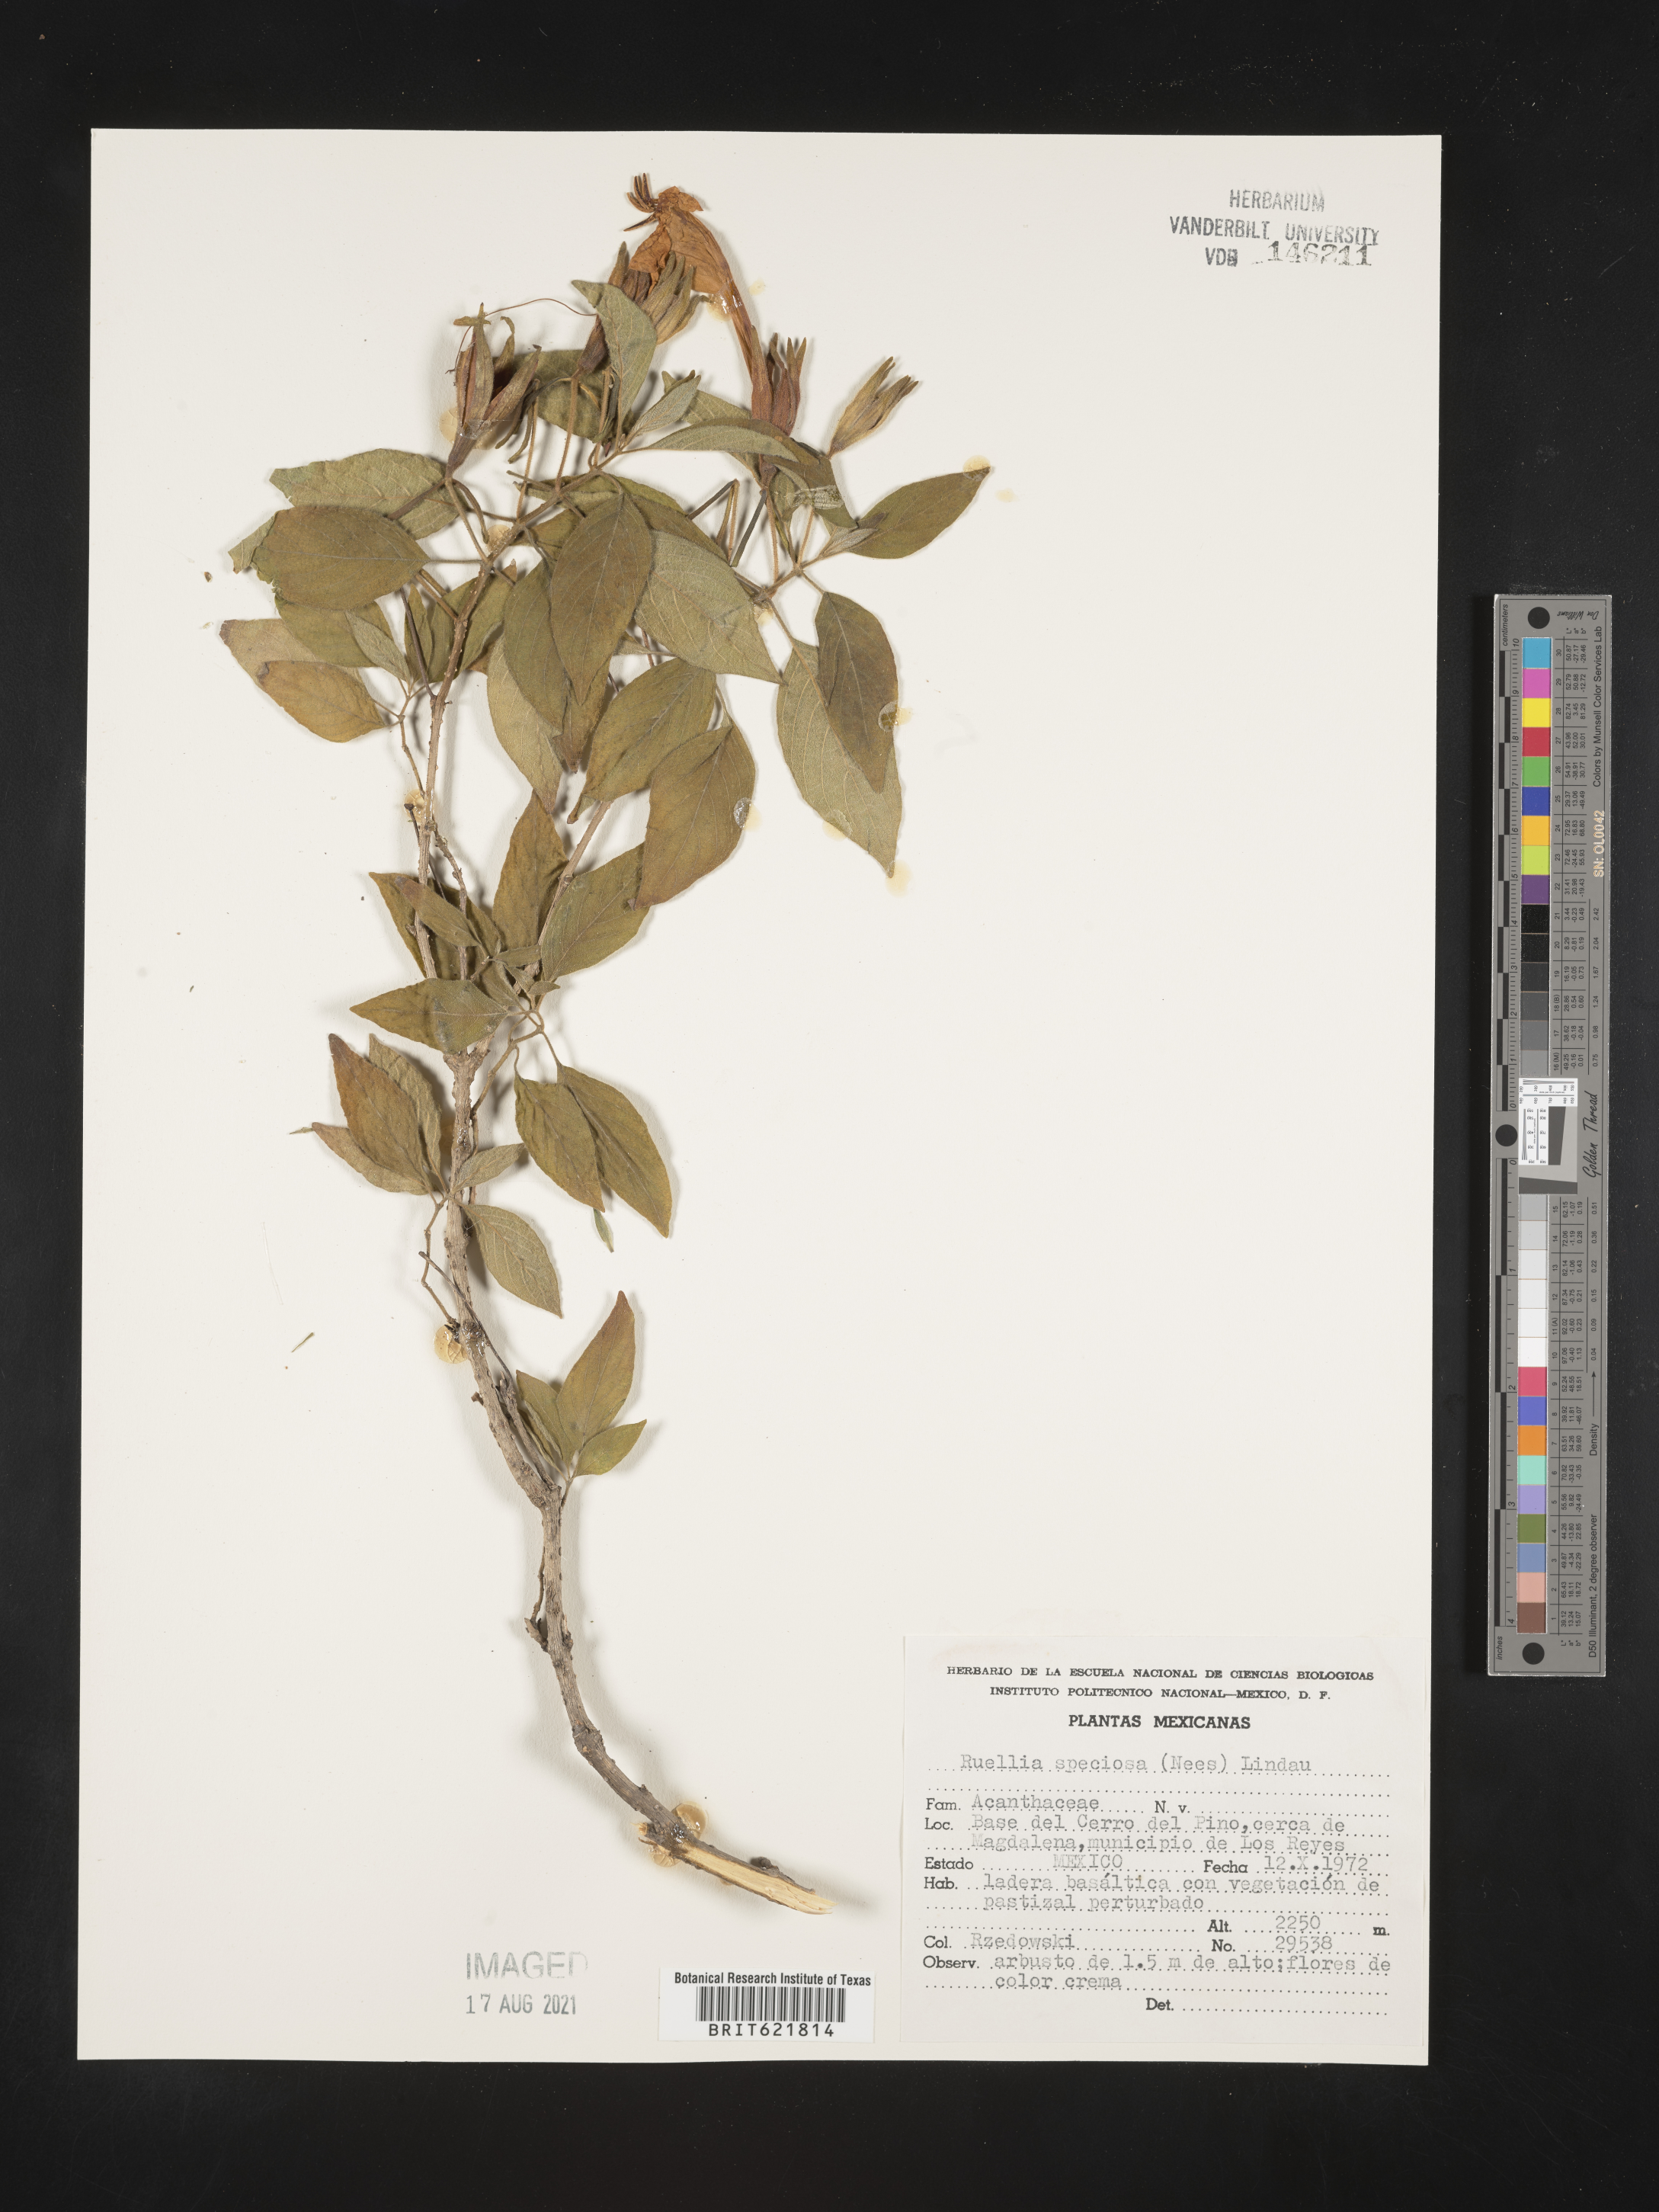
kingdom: Plantae
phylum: Tracheophyta
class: Magnoliopsida
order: Lamiales
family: Acanthaceae
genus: Ruellia
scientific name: Ruellia
